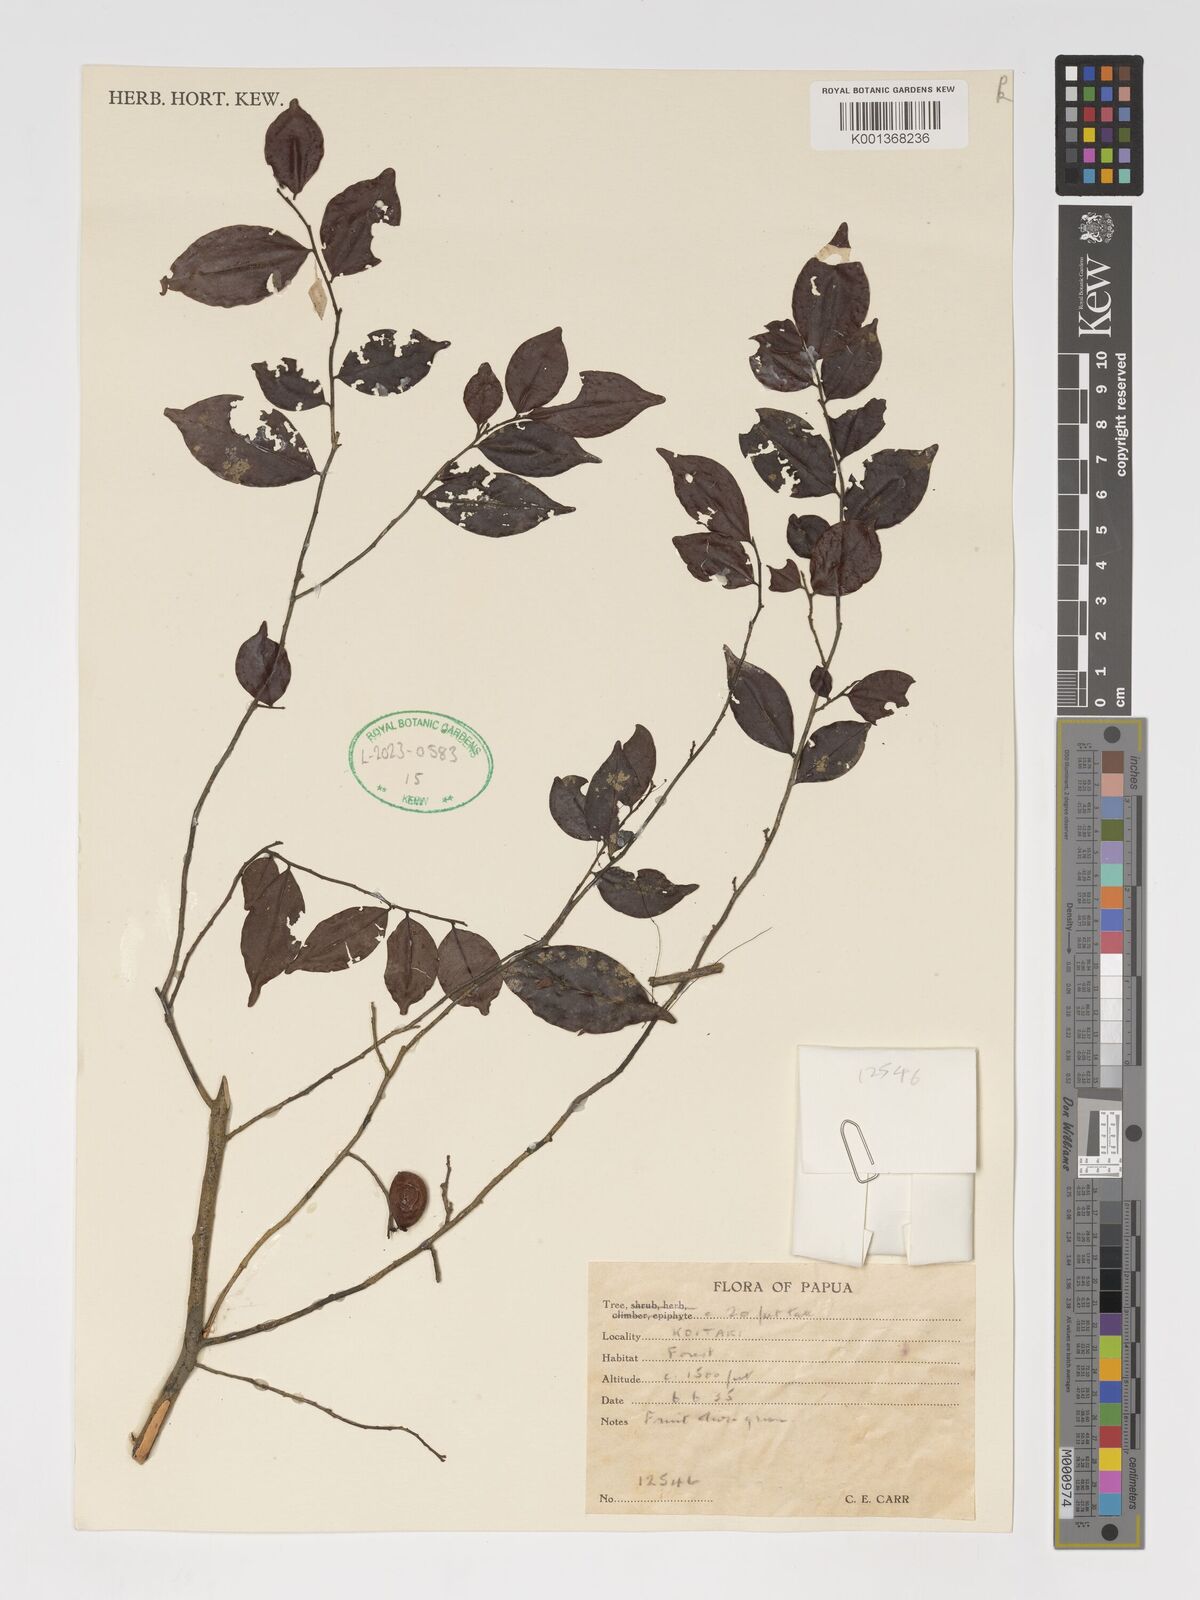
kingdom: Plantae
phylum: Tracheophyta
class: Magnoliopsida
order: Ericales
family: Ebenaceae
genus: Diospyros
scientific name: Diospyros ferrea
